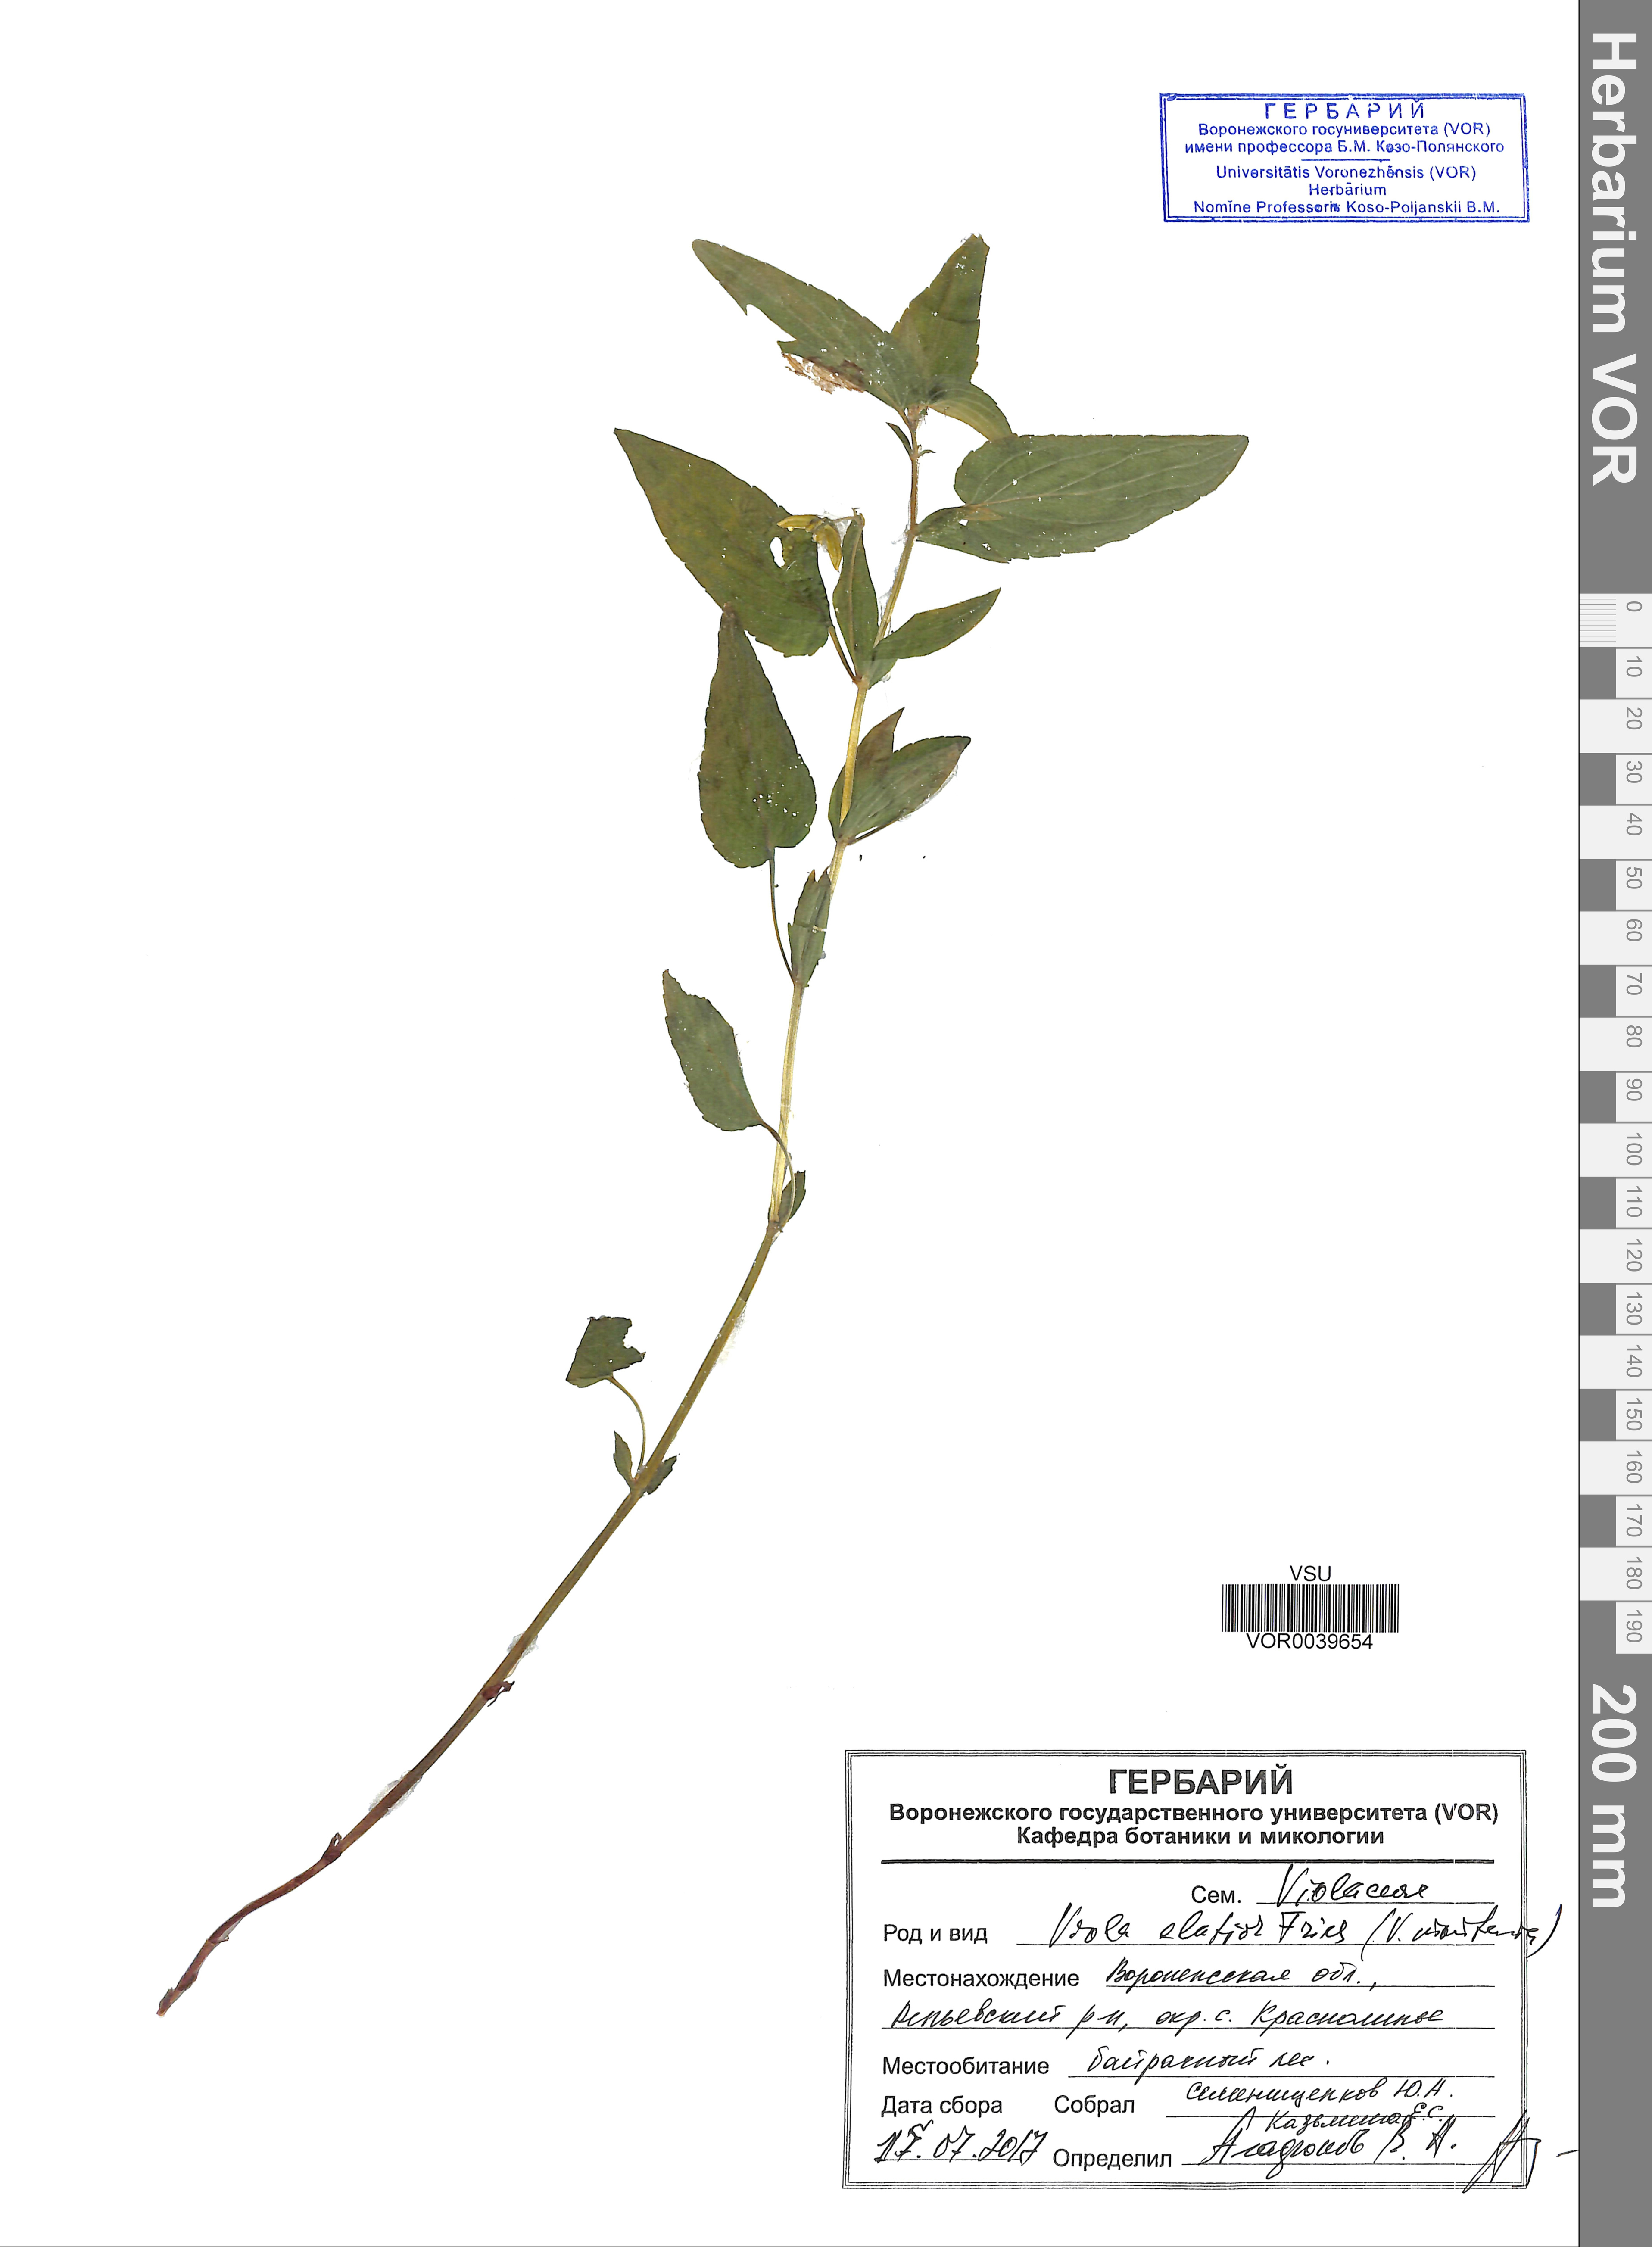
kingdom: Plantae
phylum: Tracheophyta
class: Magnoliopsida
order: Malpighiales
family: Violaceae
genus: Viola
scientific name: Viola elatior
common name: Tall violet
